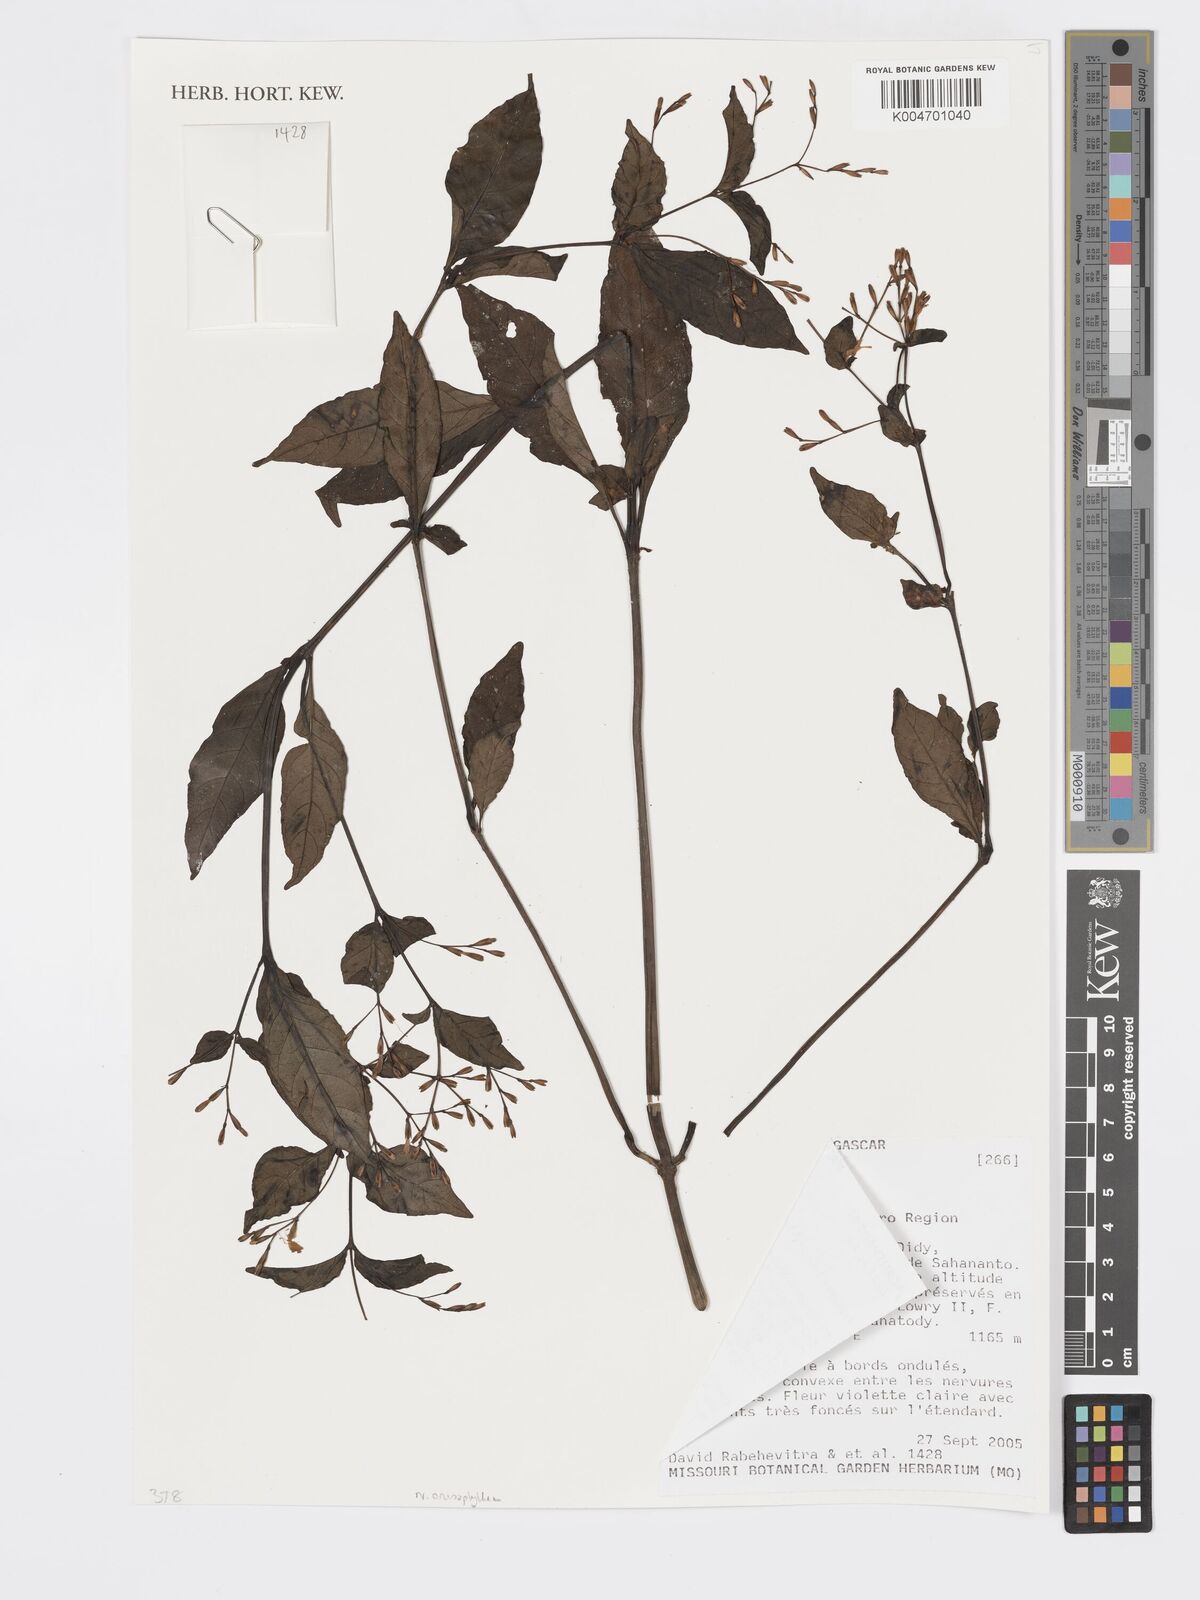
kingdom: Plantae
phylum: Tracheophyta
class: Magnoliopsida
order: Lamiales
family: Acanthaceae
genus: Hypoestes
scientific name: Hypoestes
